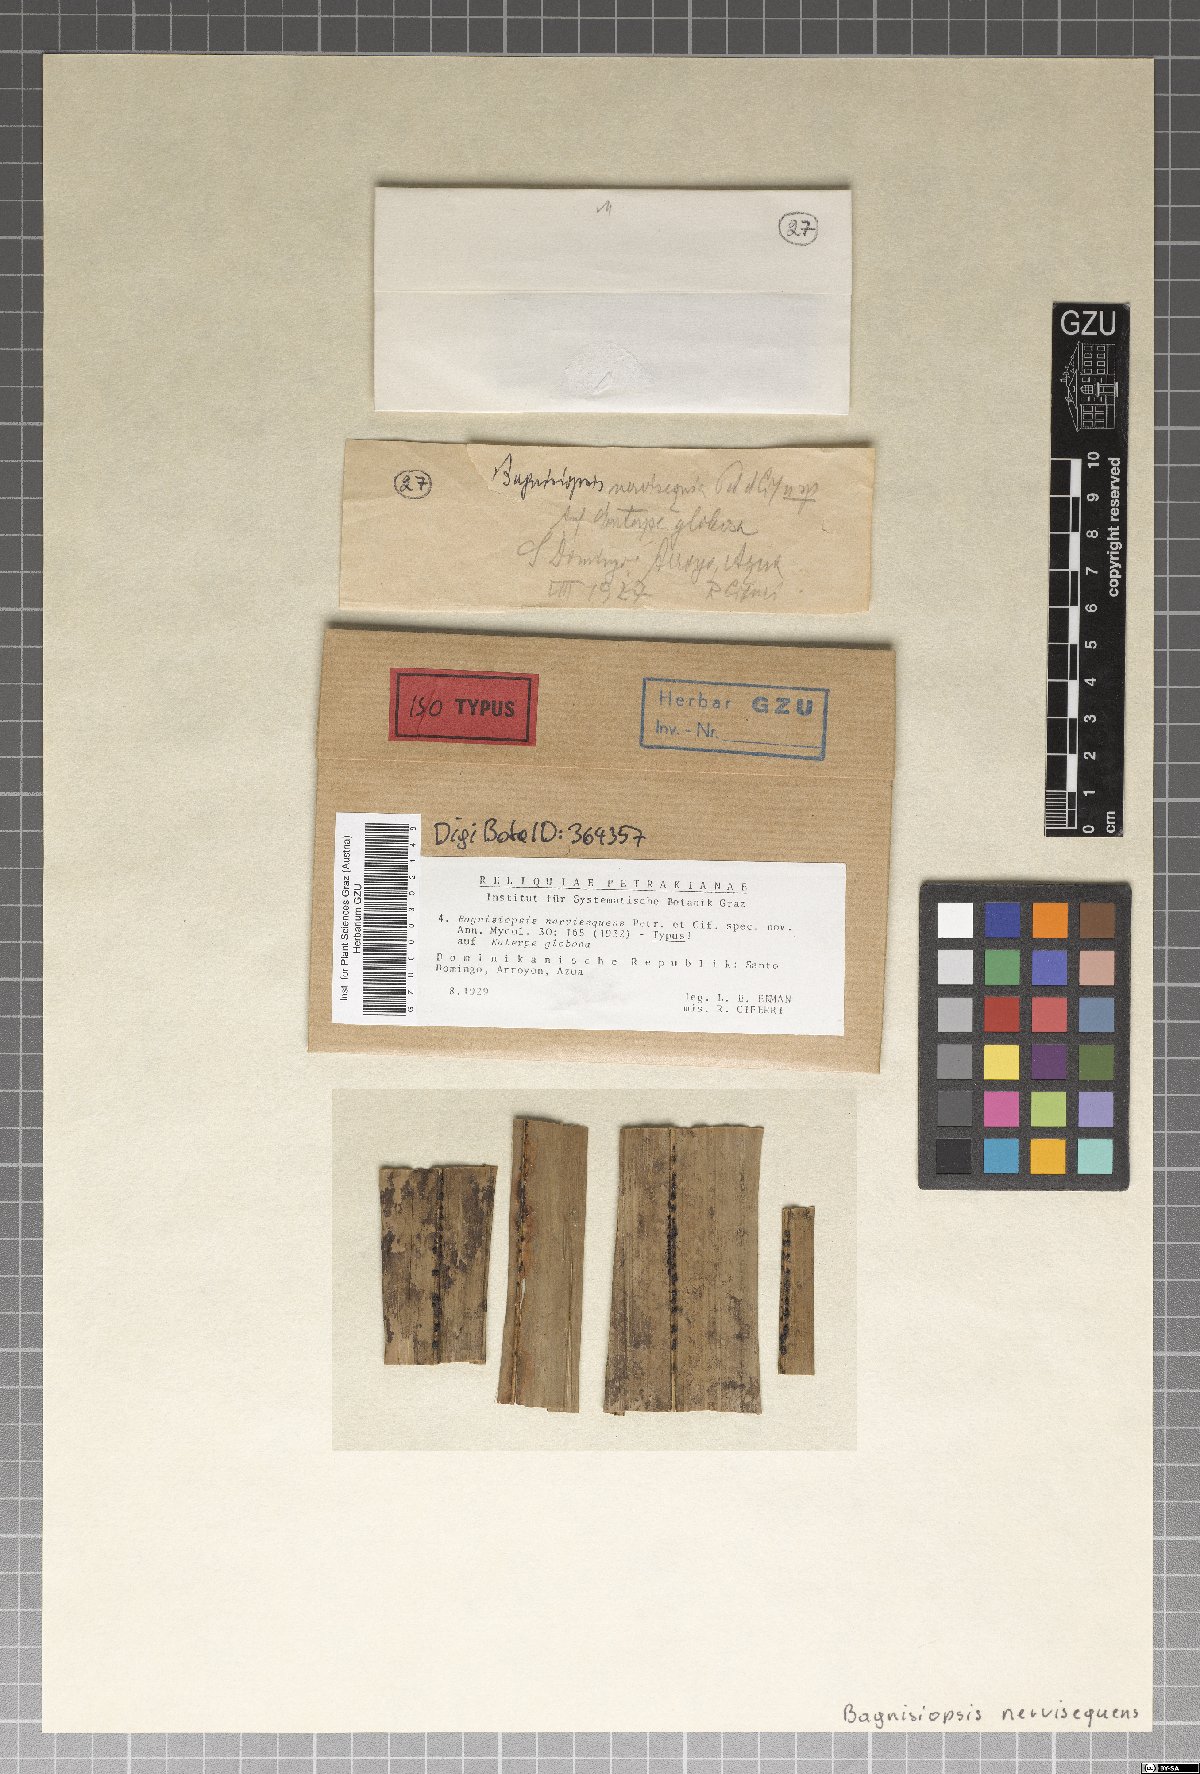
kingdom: Fungi
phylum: Ascomycota
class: Sordariomycetes
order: Phyllachorales
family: Phyllachoraceae
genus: Coccostromopsis
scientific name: Coccostromopsis diplothemii
